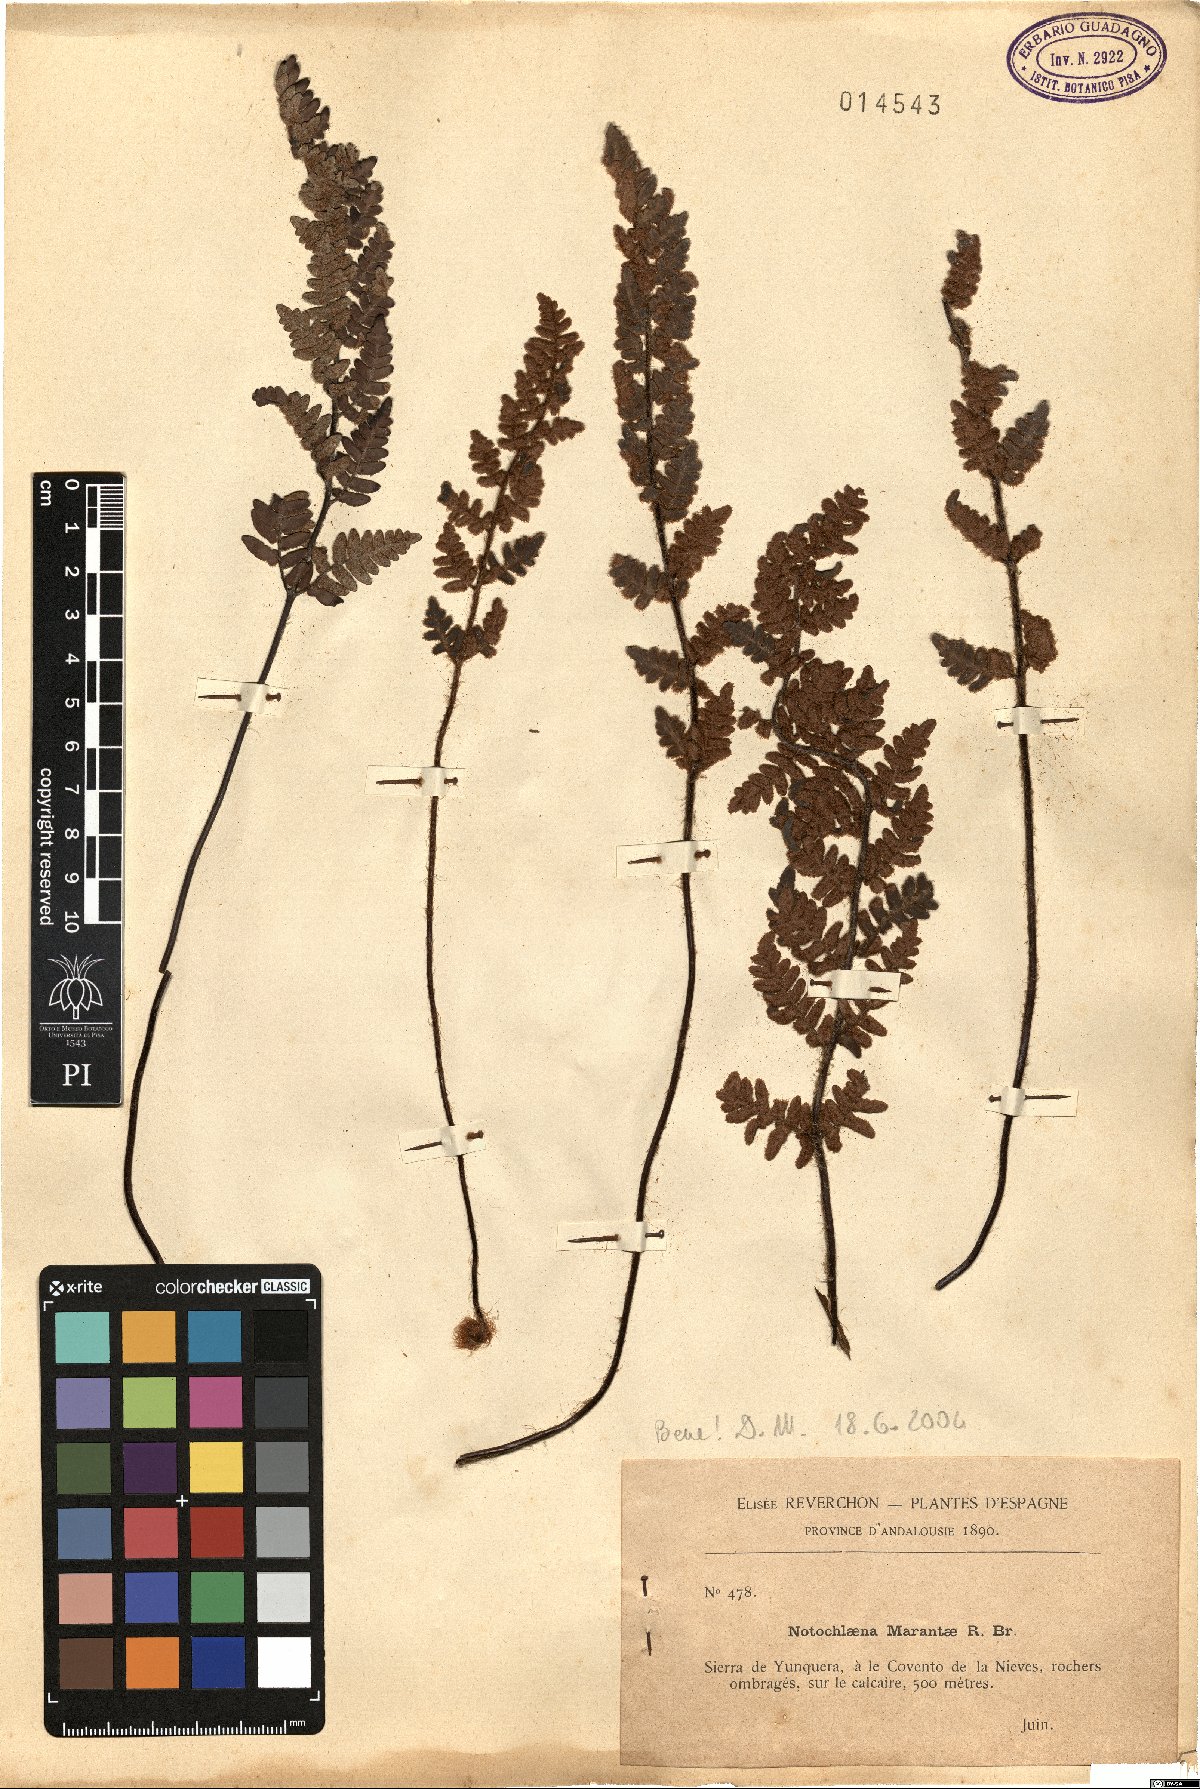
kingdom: Plantae
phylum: Tracheophyta
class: Polypodiopsida
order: Polypodiales
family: Pteridaceae
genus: Paragymnopteris
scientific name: Paragymnopteris marantae
